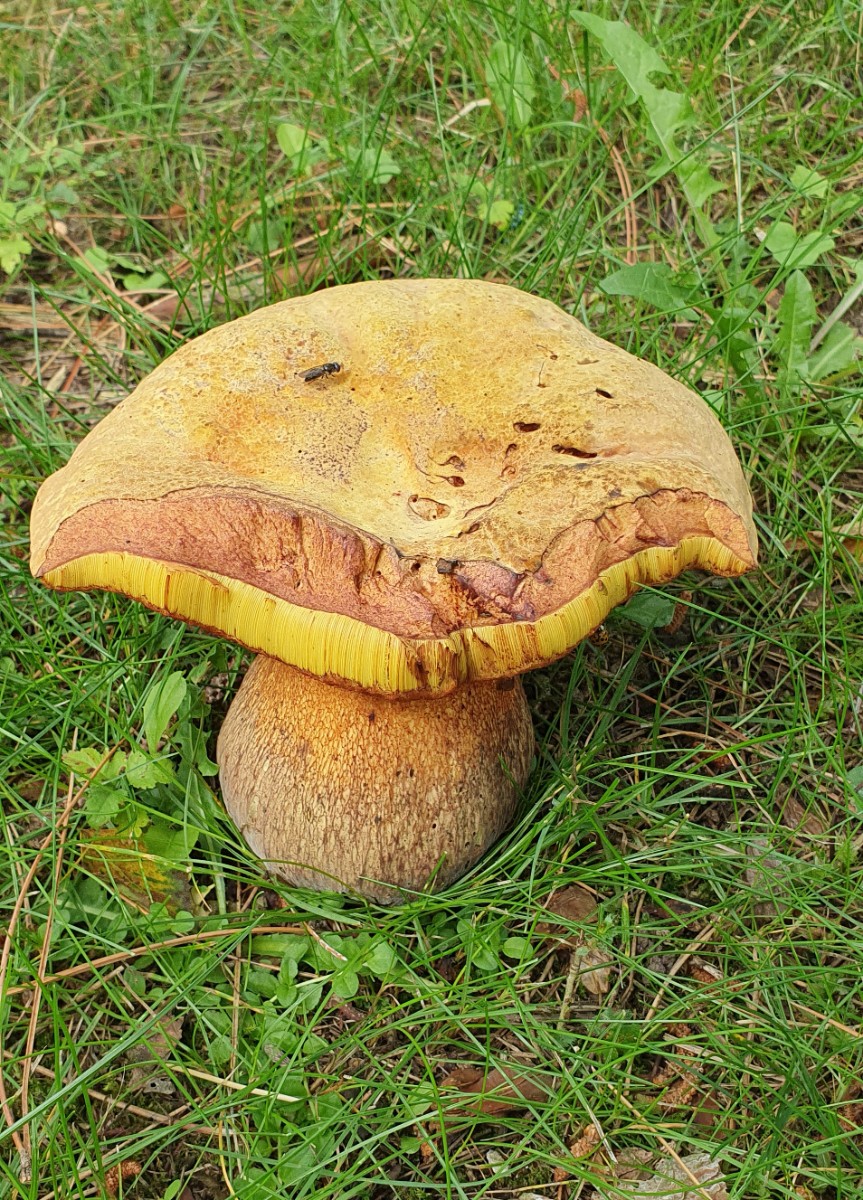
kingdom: Fungi
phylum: Basidiomycota
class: Agaricomycetes
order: Boletales
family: Boletaceae
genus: Suillellus
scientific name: Suillellus luridus
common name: netstokket indigorørhat
